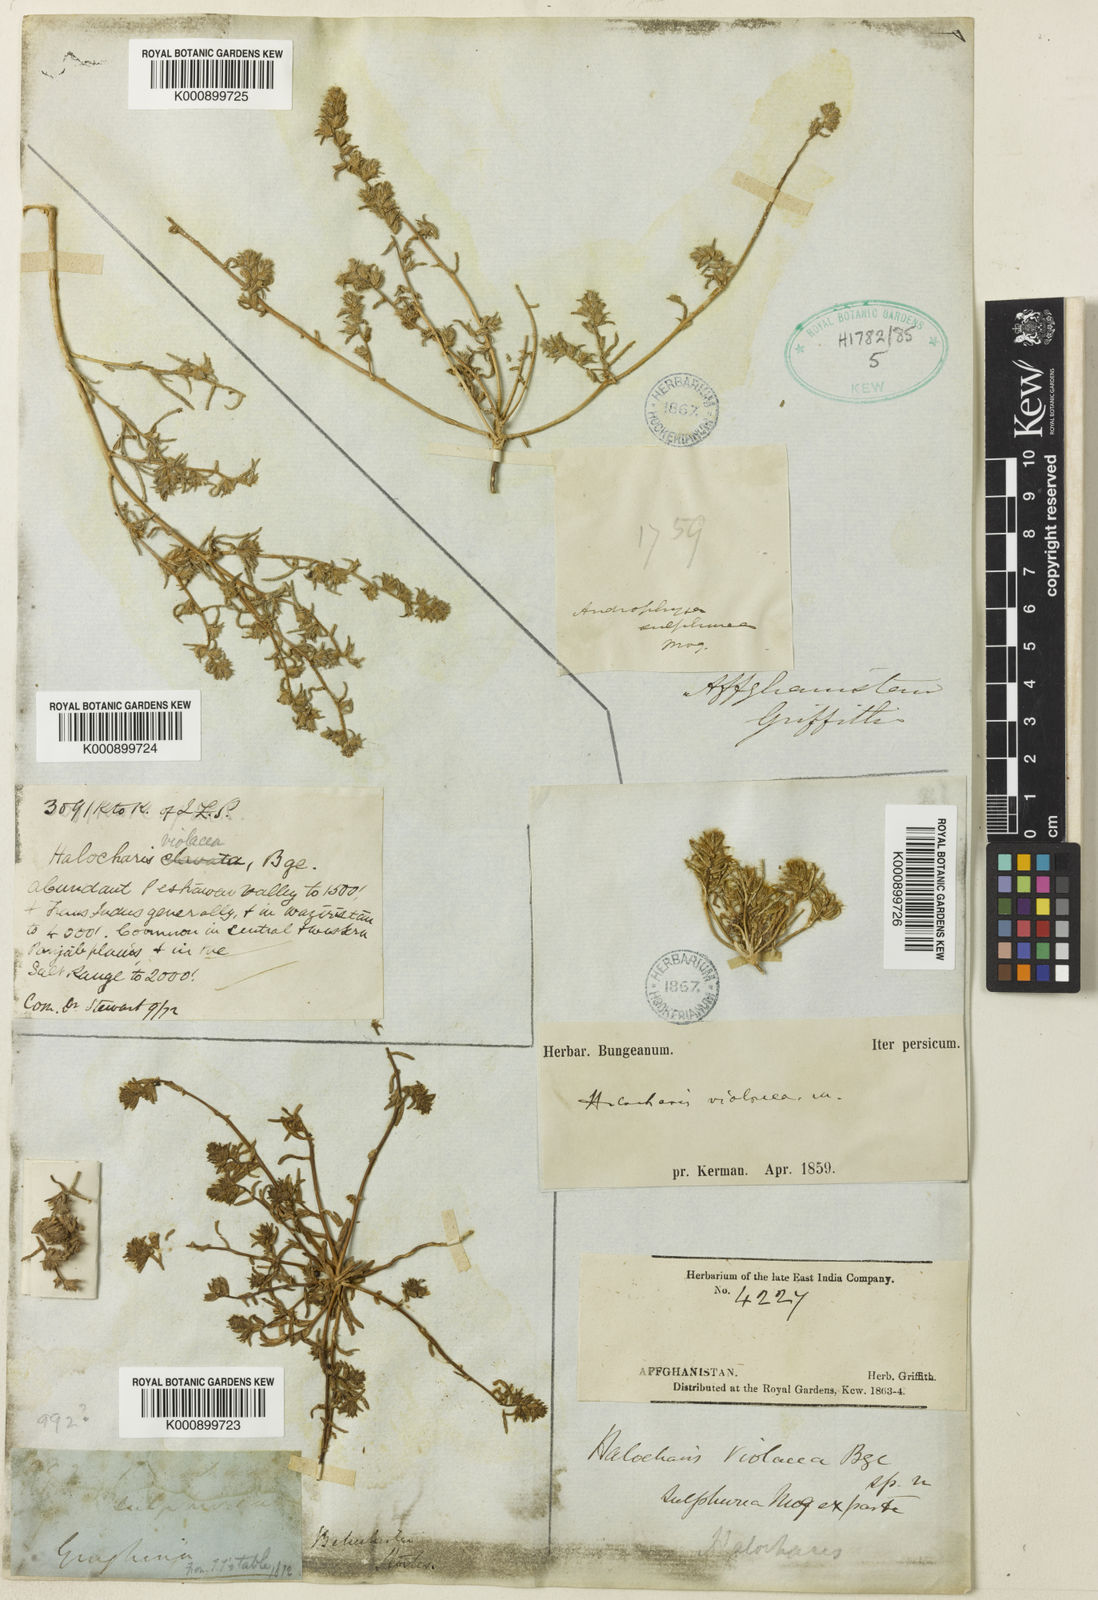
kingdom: Plantae
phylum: Tracheophyta
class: Magnoliopsida
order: Caryophyllales
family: Amaranthaceae
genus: Halocharis
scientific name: Halocharis violacea
